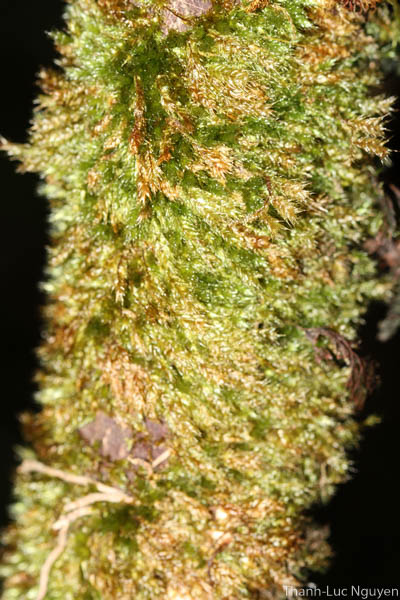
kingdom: Plantae
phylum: Bryophyta
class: Bryopsida
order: Hypnales
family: Myuriaceae
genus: Oedicladium
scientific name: Oedicladium rufescens
